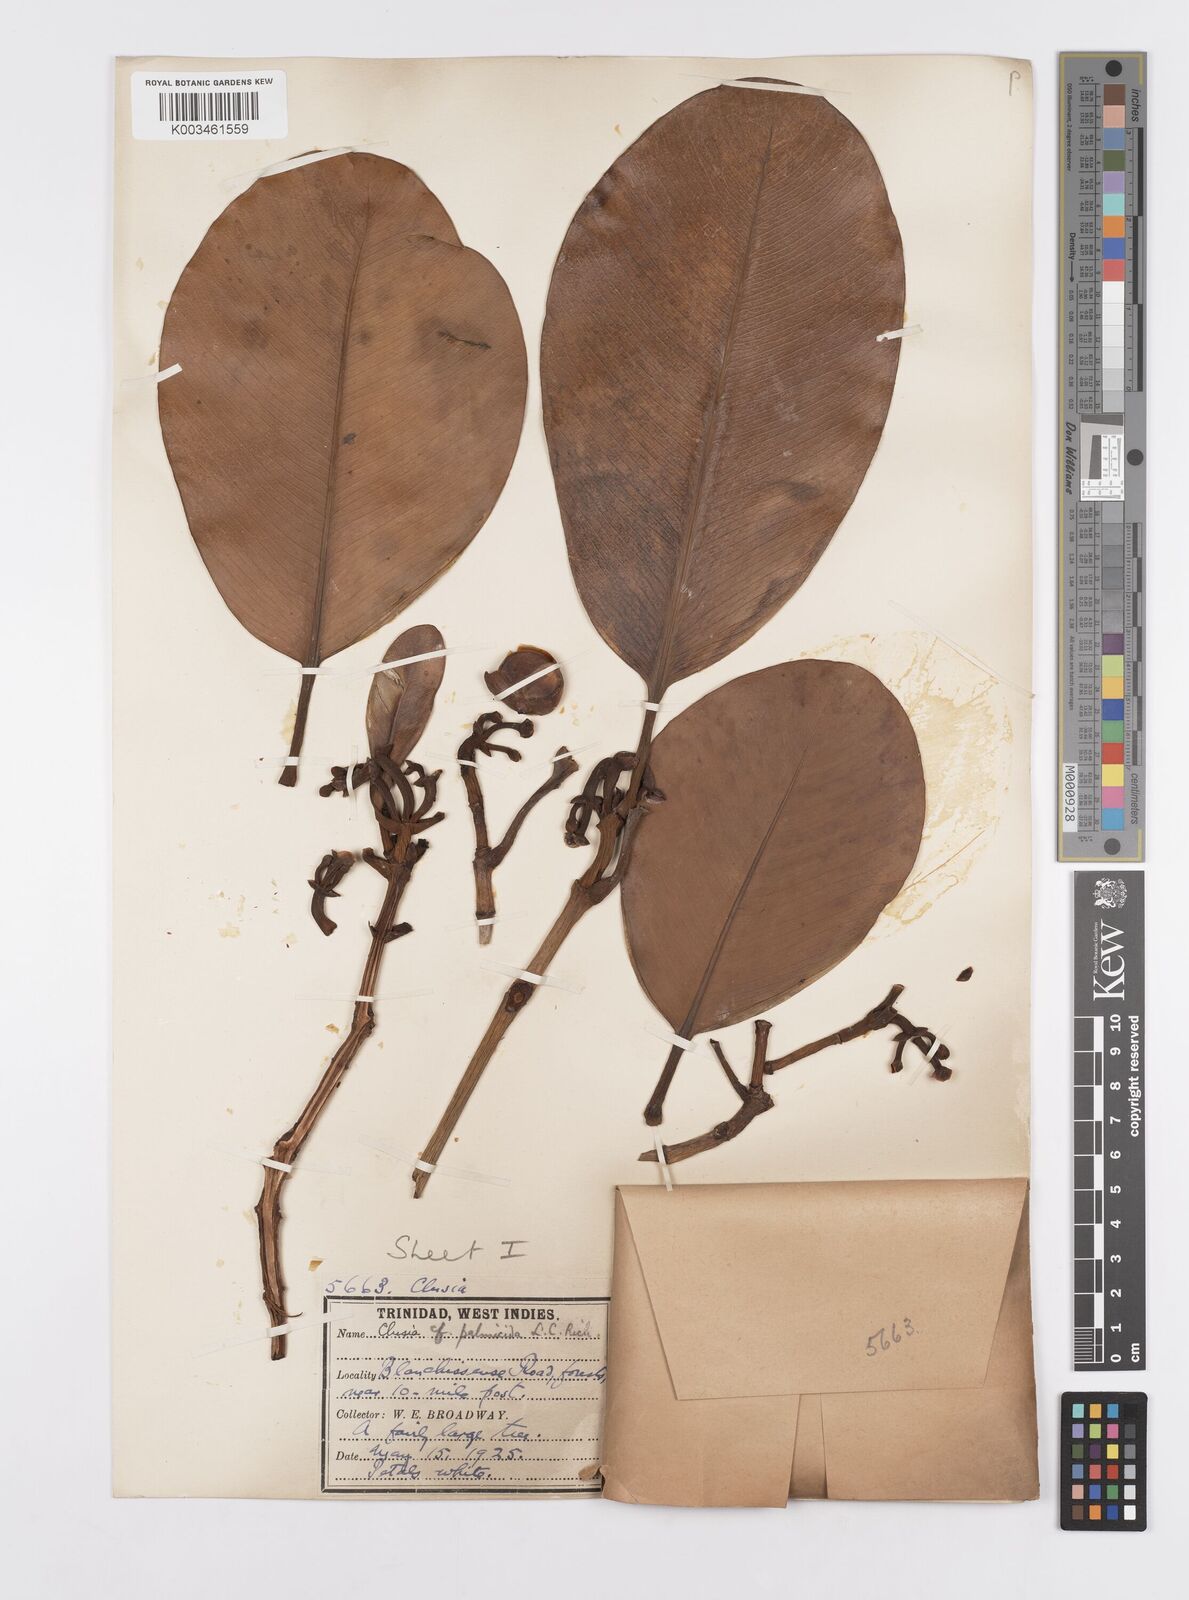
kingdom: Plantae
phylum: Tracheophyta
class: Magnoliopsida
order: Malpighiales
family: Clusiaceae
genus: Clusia
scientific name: Clusia palmicida
